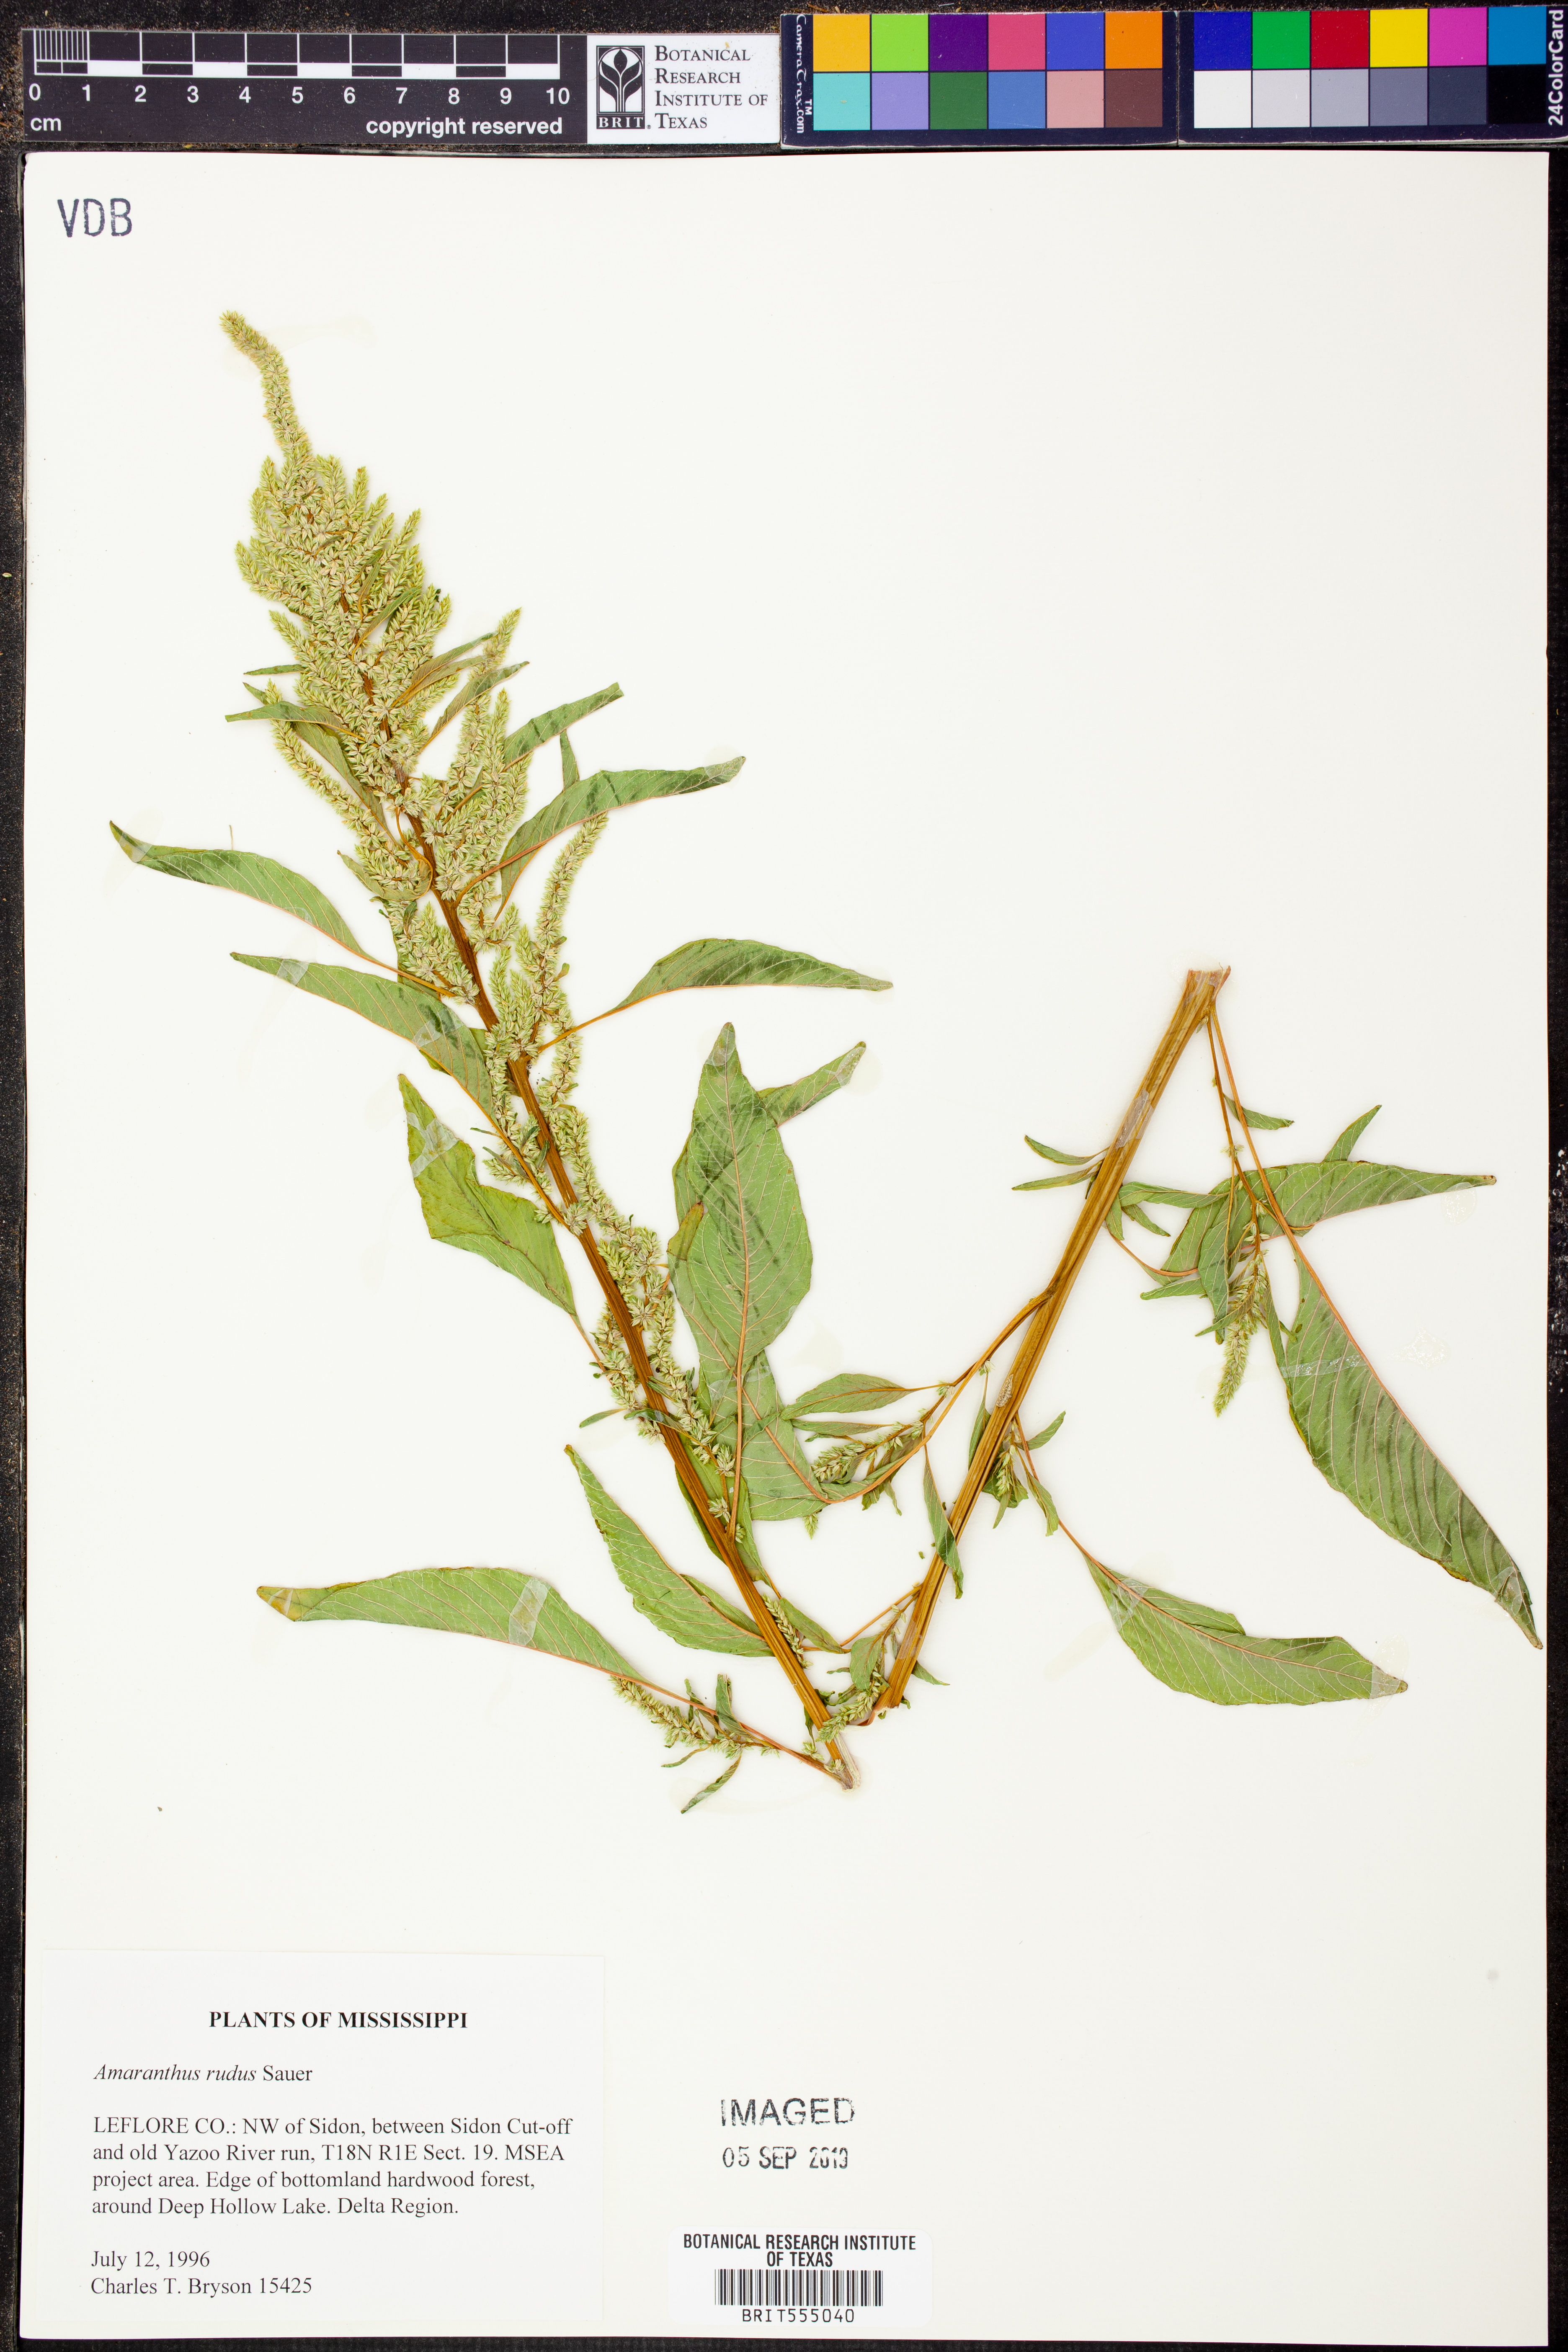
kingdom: Plantae
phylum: Tracheophyta
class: Magnoliopsida
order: Caryophyllales
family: Amaranthaceae
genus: Amaranthus
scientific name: Amaranthus tuberculatus
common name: Rough-fruit amaranth
